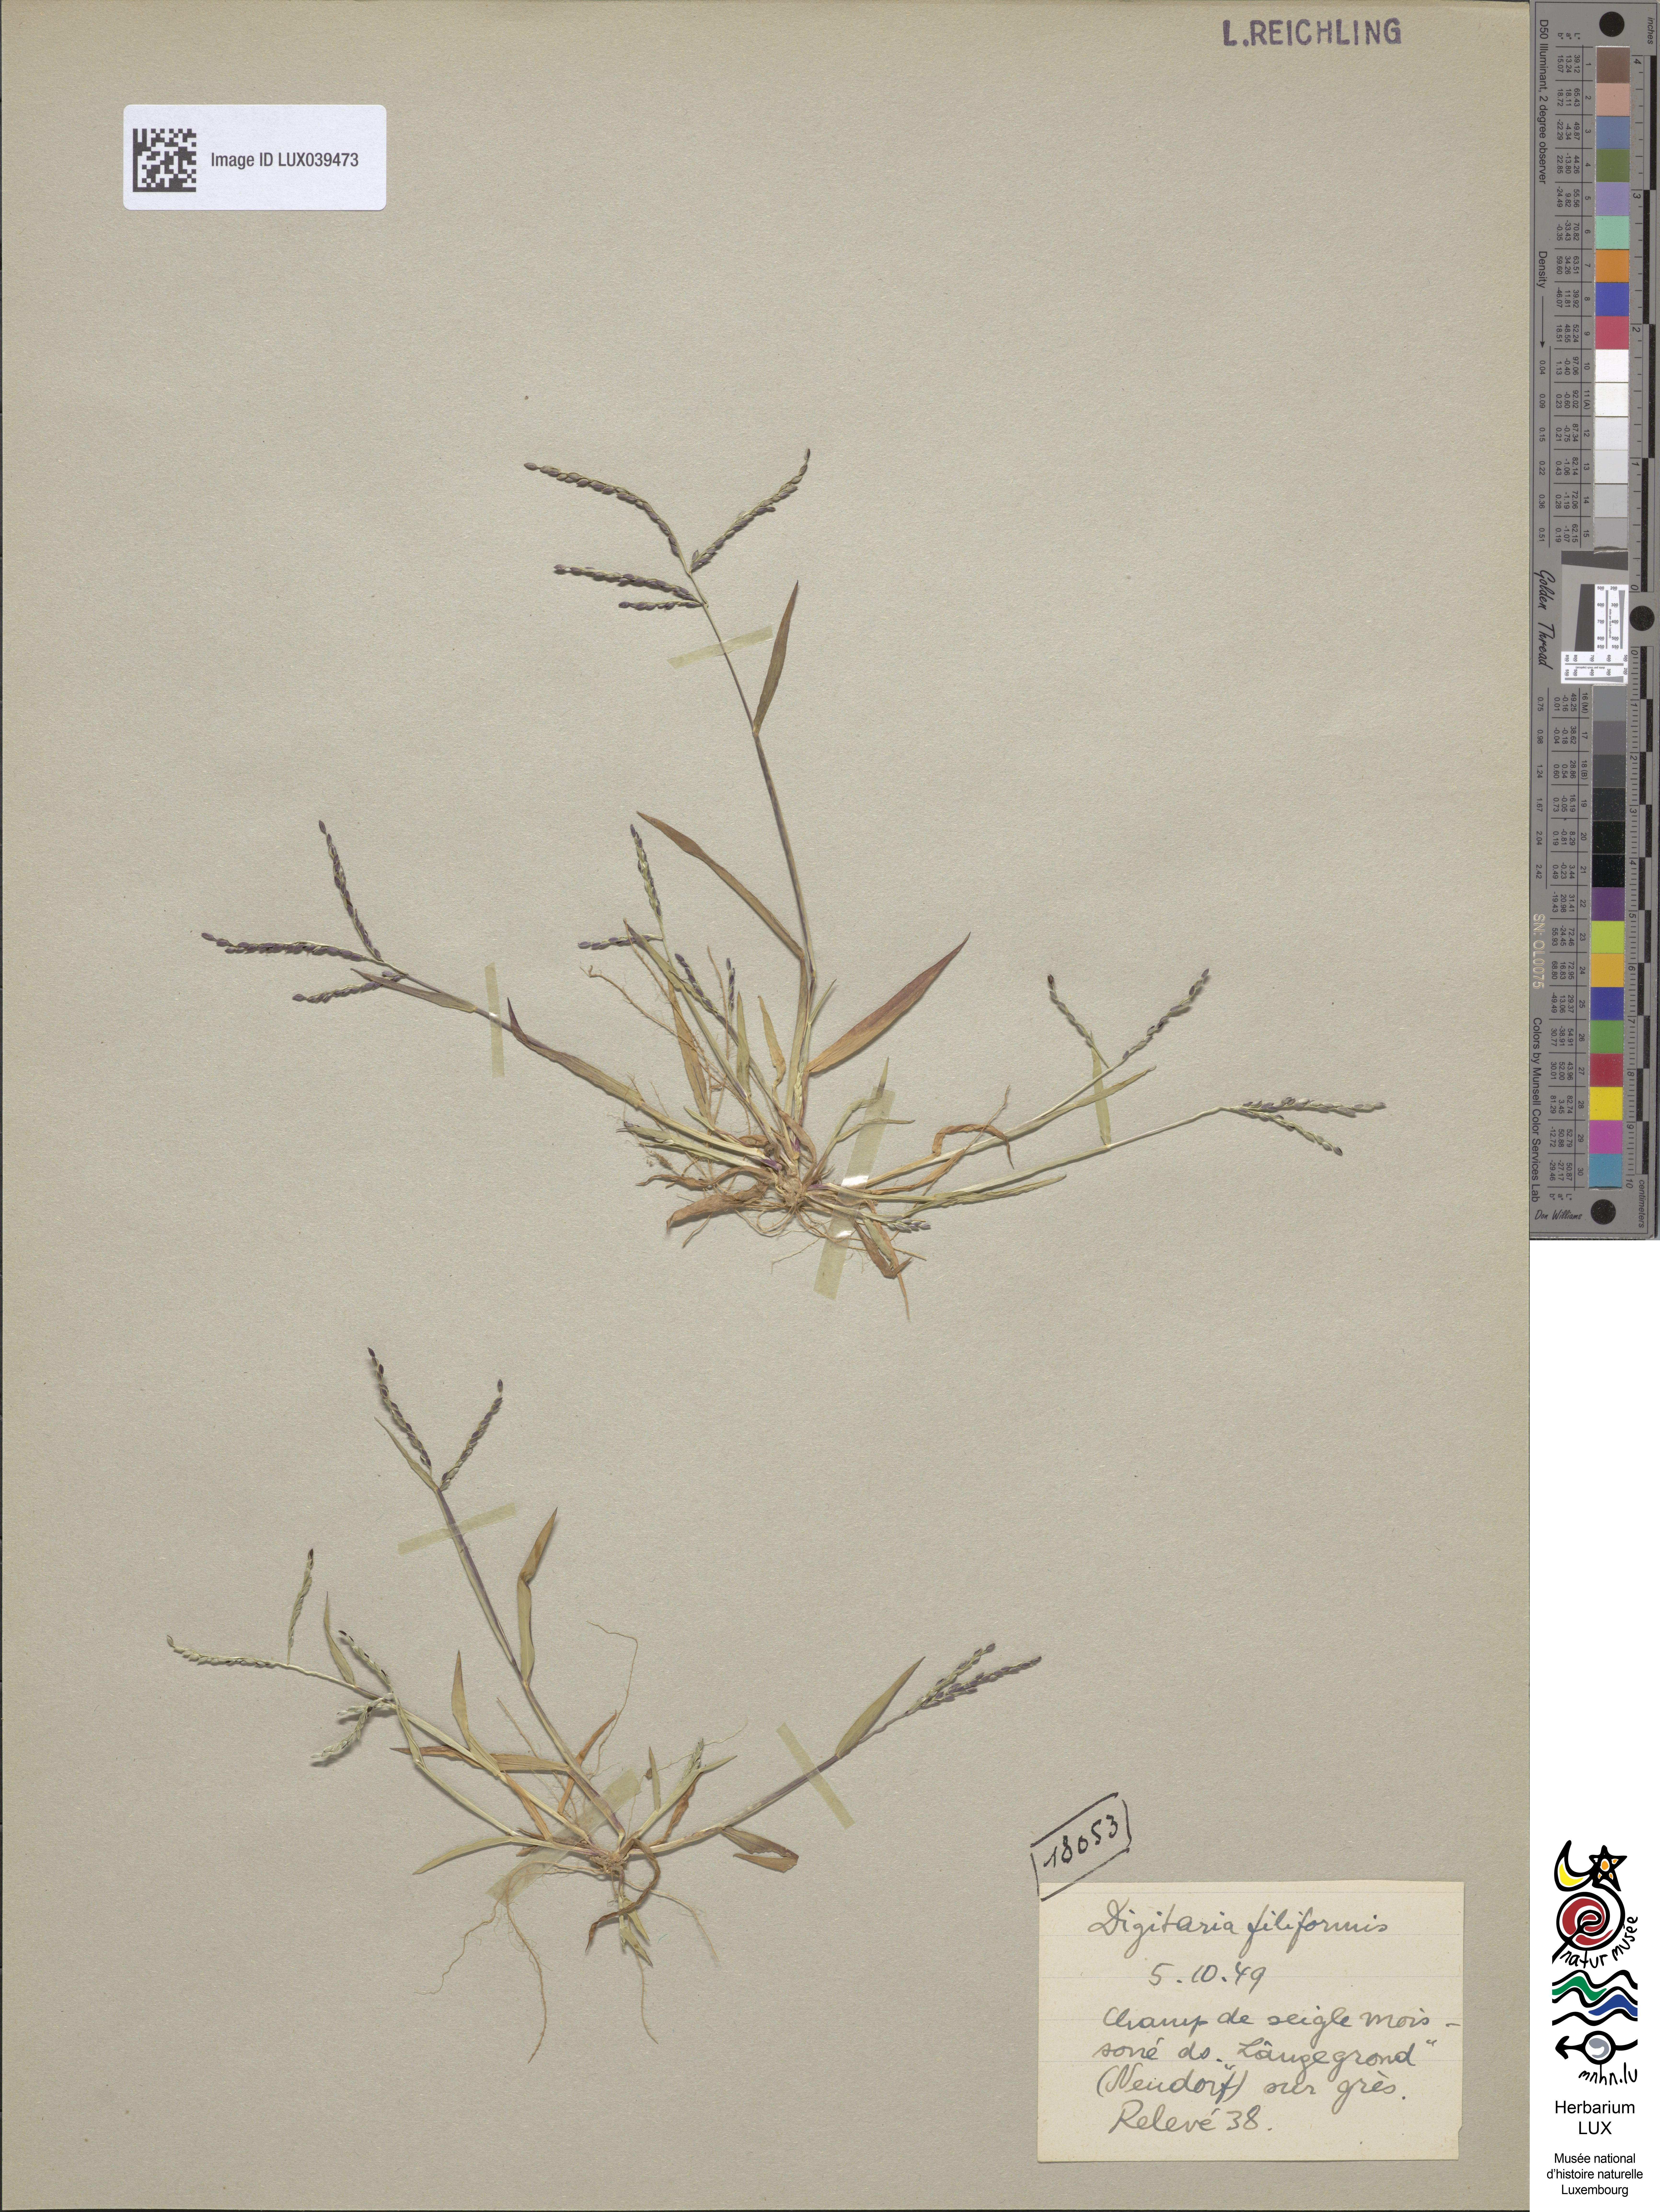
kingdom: Plantae
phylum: Tracheophyta
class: Liliopsida
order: Poales
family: Poaceae
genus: Digitaria
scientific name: Digitaria ischaemum
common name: Smooth crabgrass
